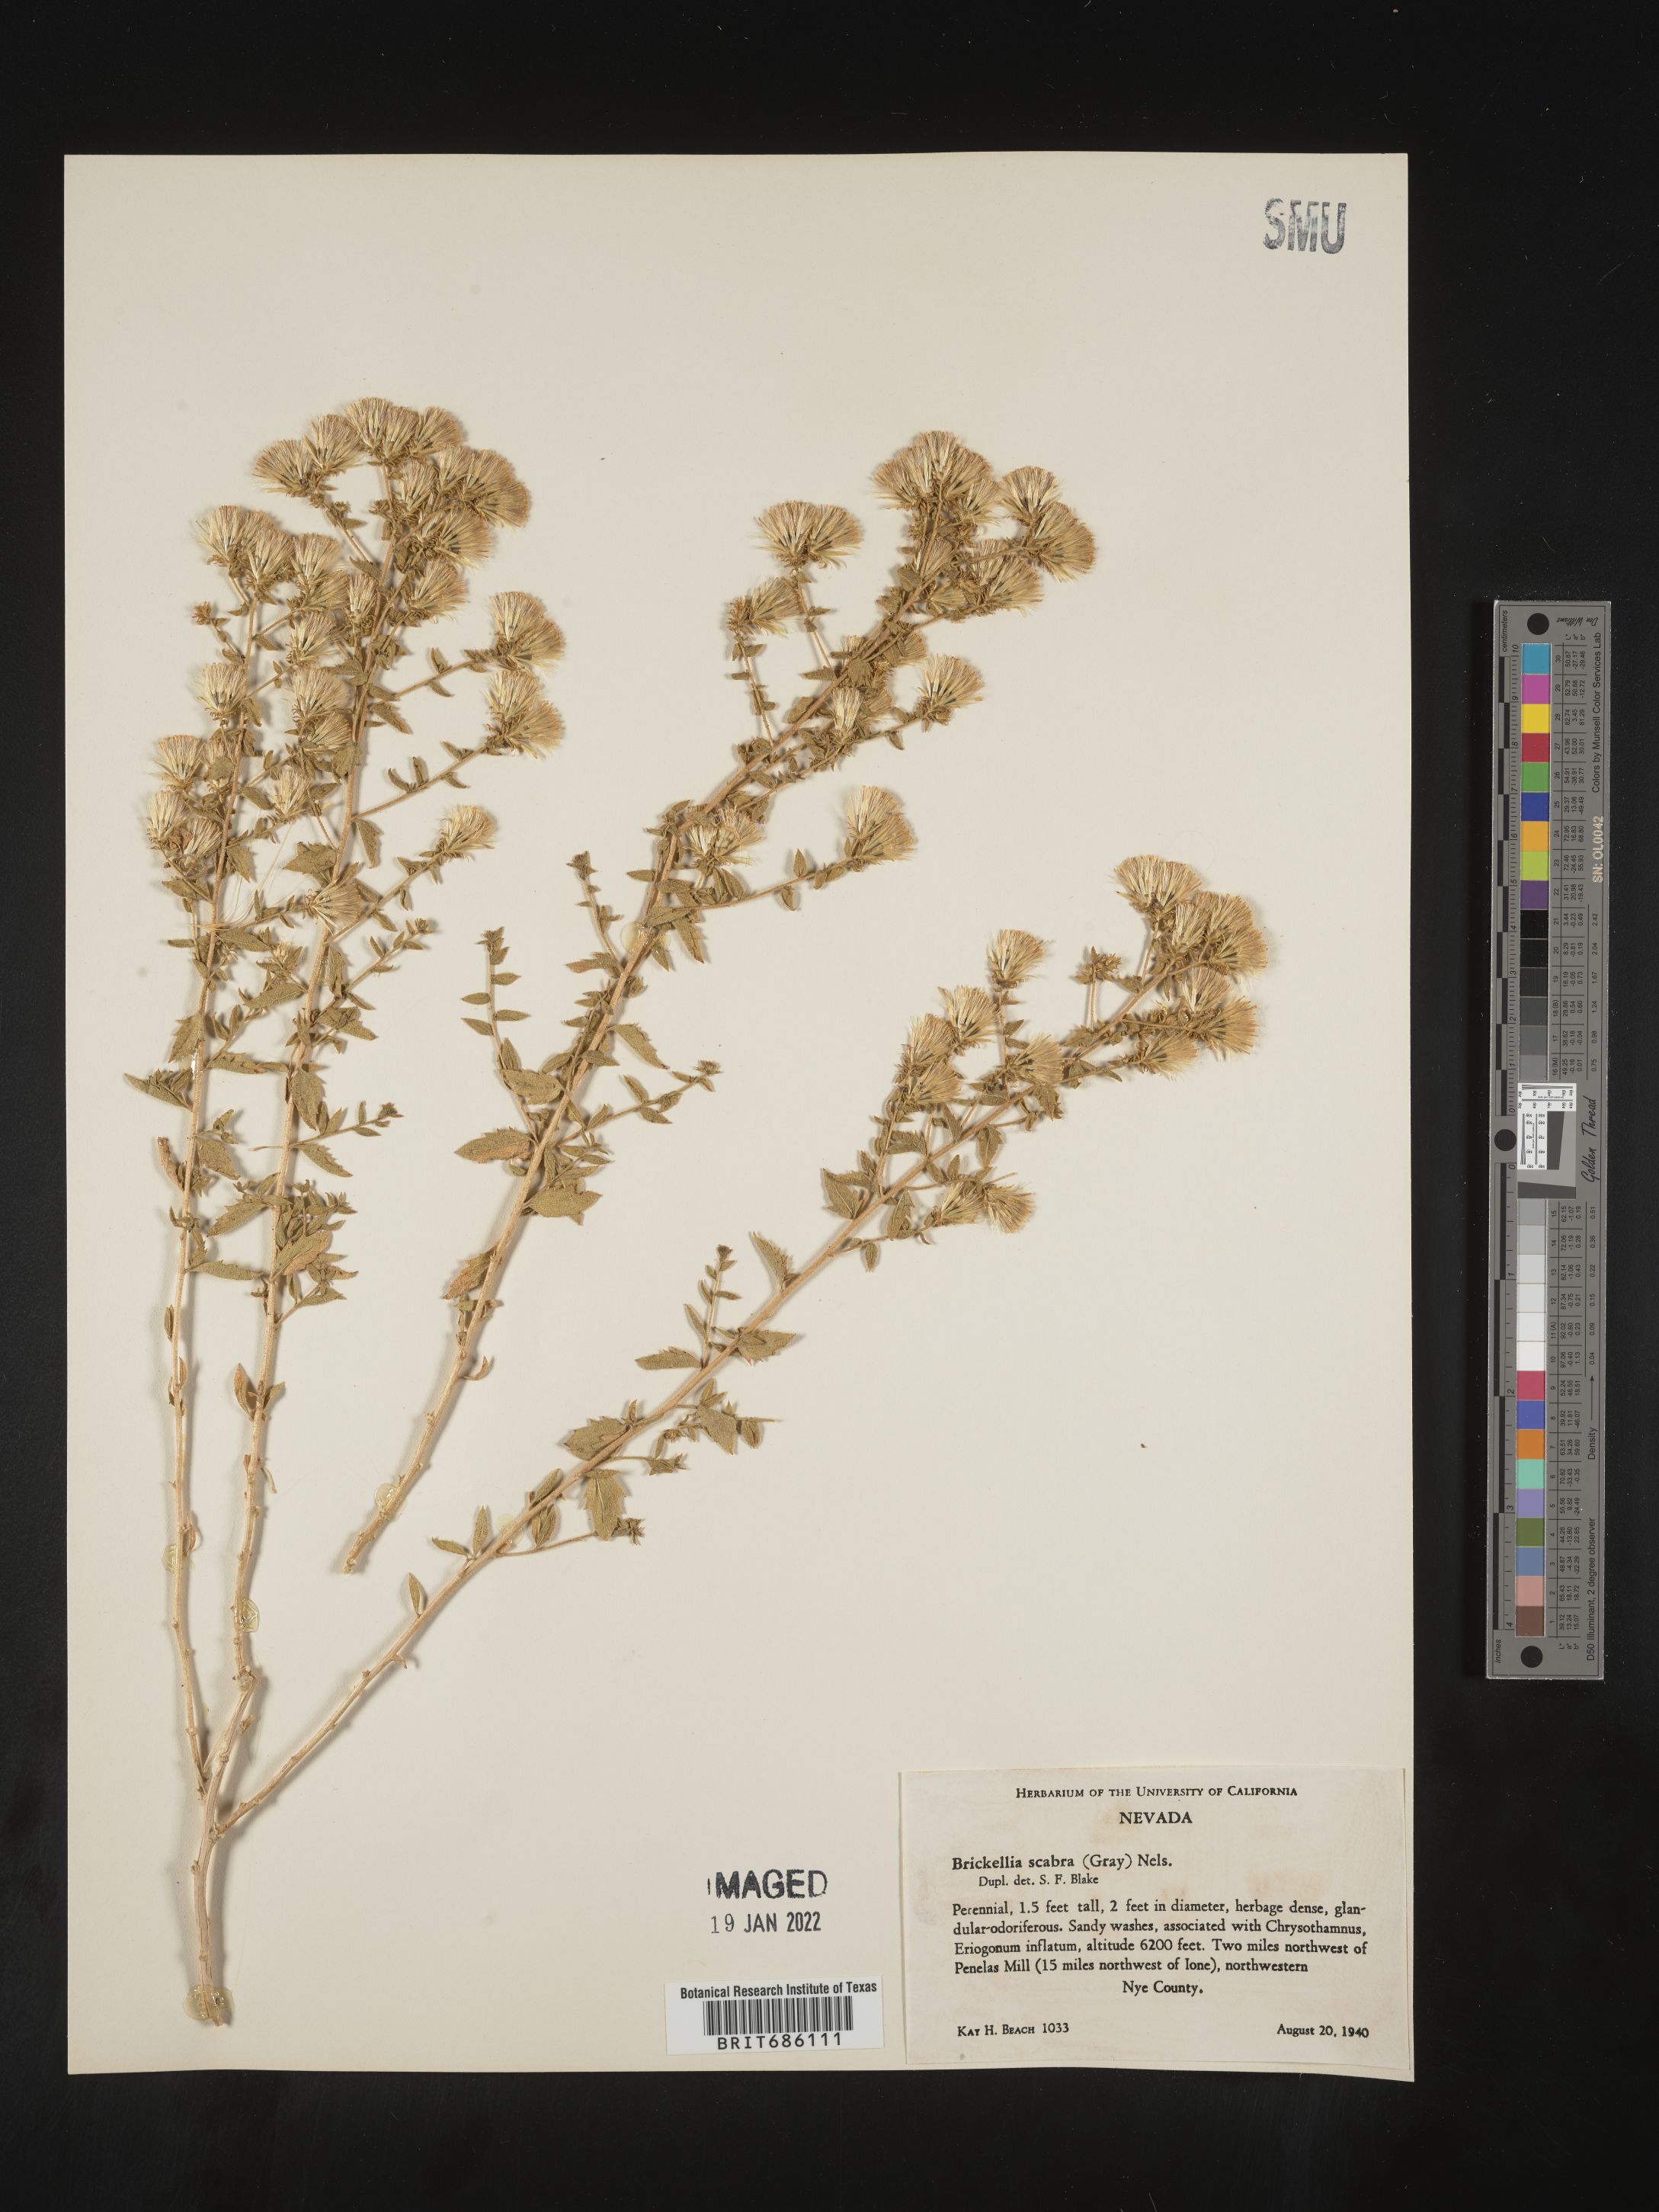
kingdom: Plantae
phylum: Tracheophyta
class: Magnoliopsida
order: Asterales
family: Asteraceae
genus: Brickellia
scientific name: Brickellia microphylla
